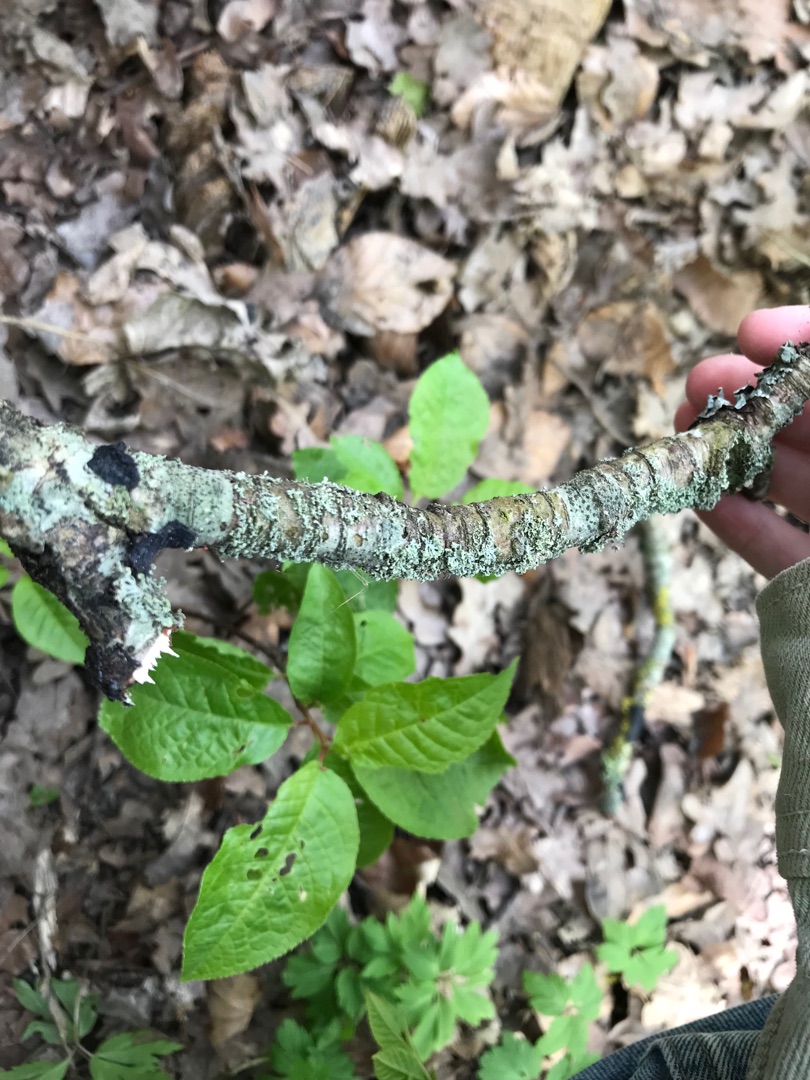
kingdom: Fungi
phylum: Ascomycota
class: Lecanoromycetes
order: Caliciales
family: Physciaceae
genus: Physcia
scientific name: Physcia tenella
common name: Spæd rosetlav
